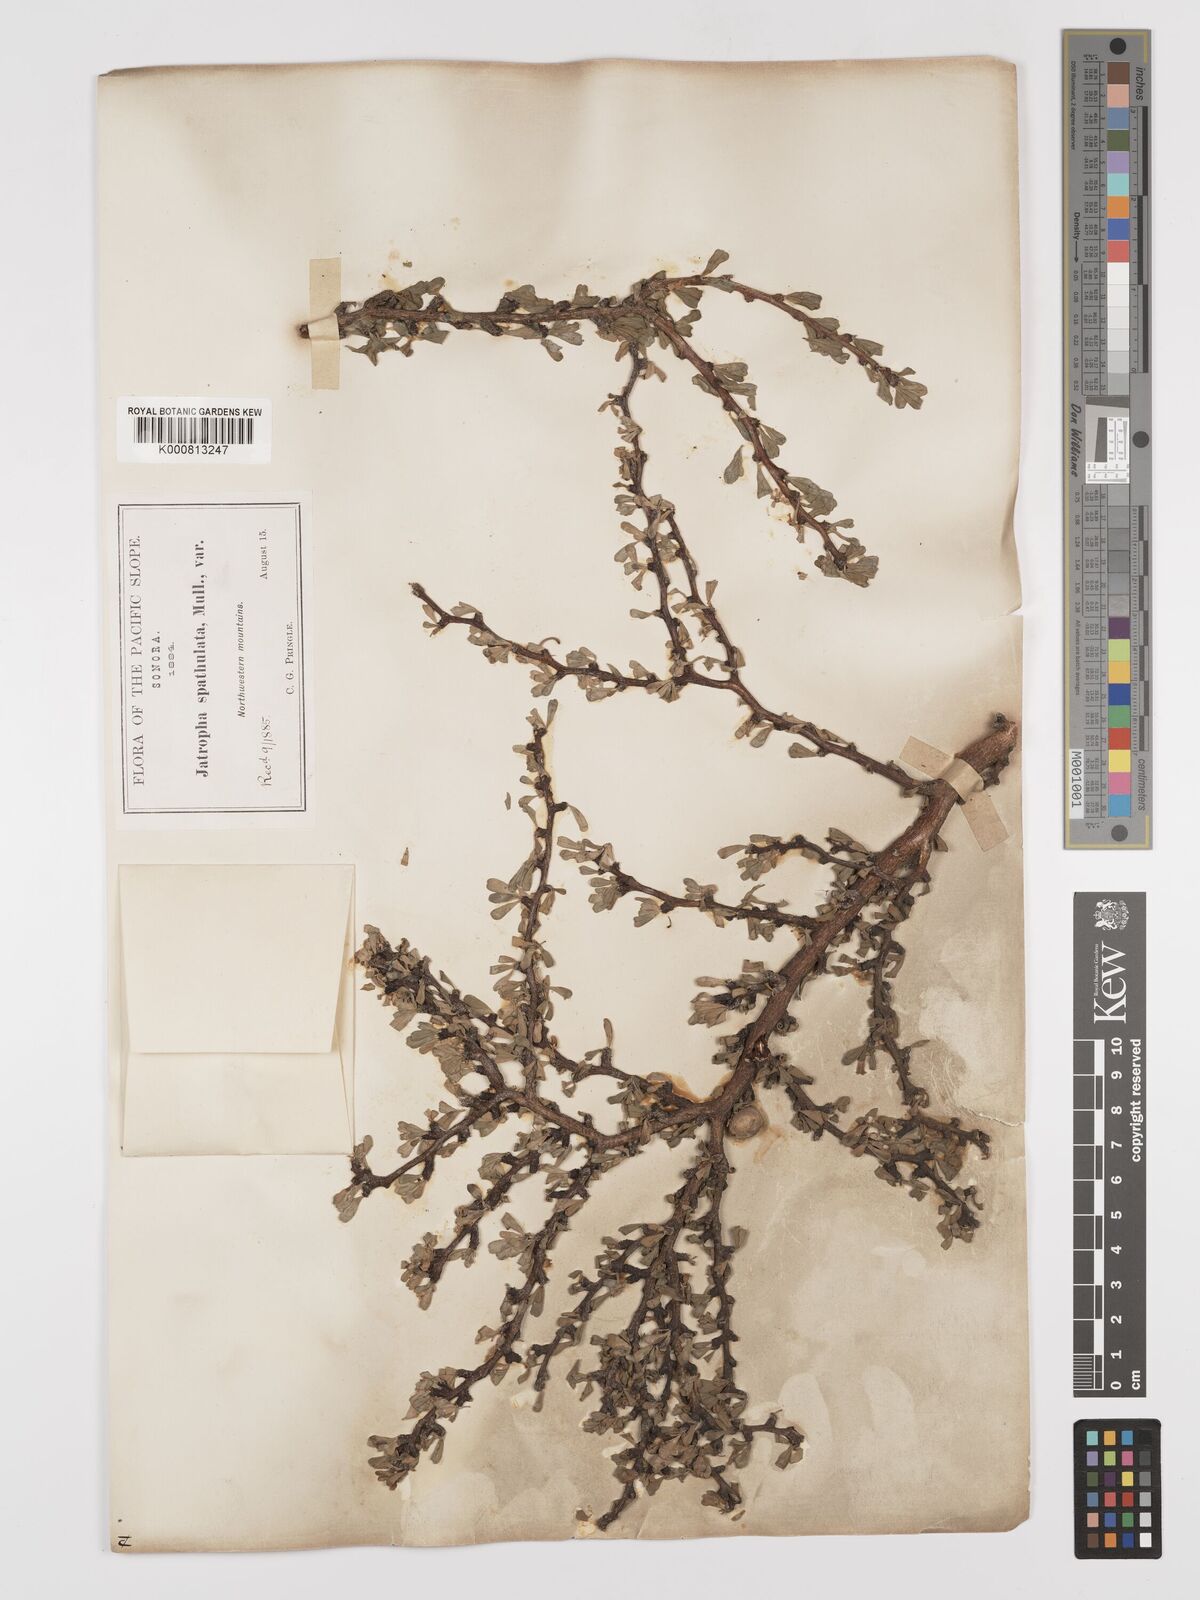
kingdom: Plantae
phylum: Tracheophyta
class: Magnoliopsida
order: Malpighiales
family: Euphorbiaceae
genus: Jatropha
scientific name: Jatropha cuneata
